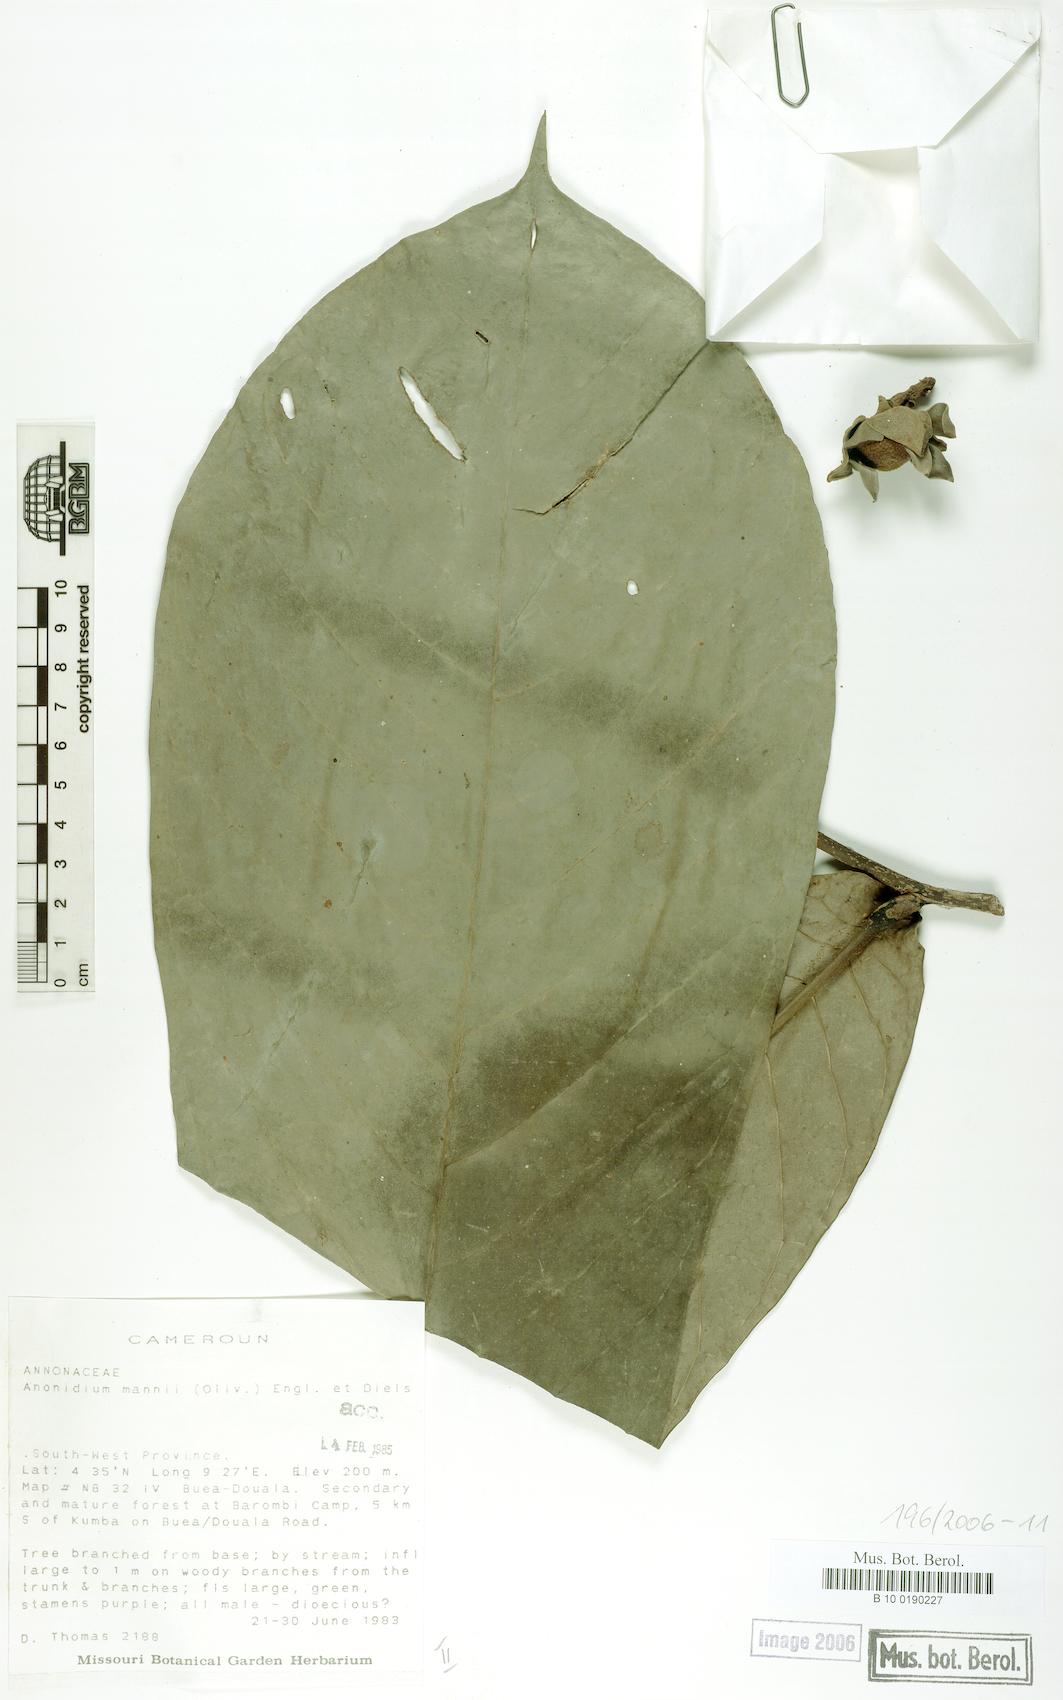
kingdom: Plantae
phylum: Tracheophyta
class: Magnoliopsida
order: Magnoliales
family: Annonaceae
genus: Anonidium
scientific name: Anonidium mannii
